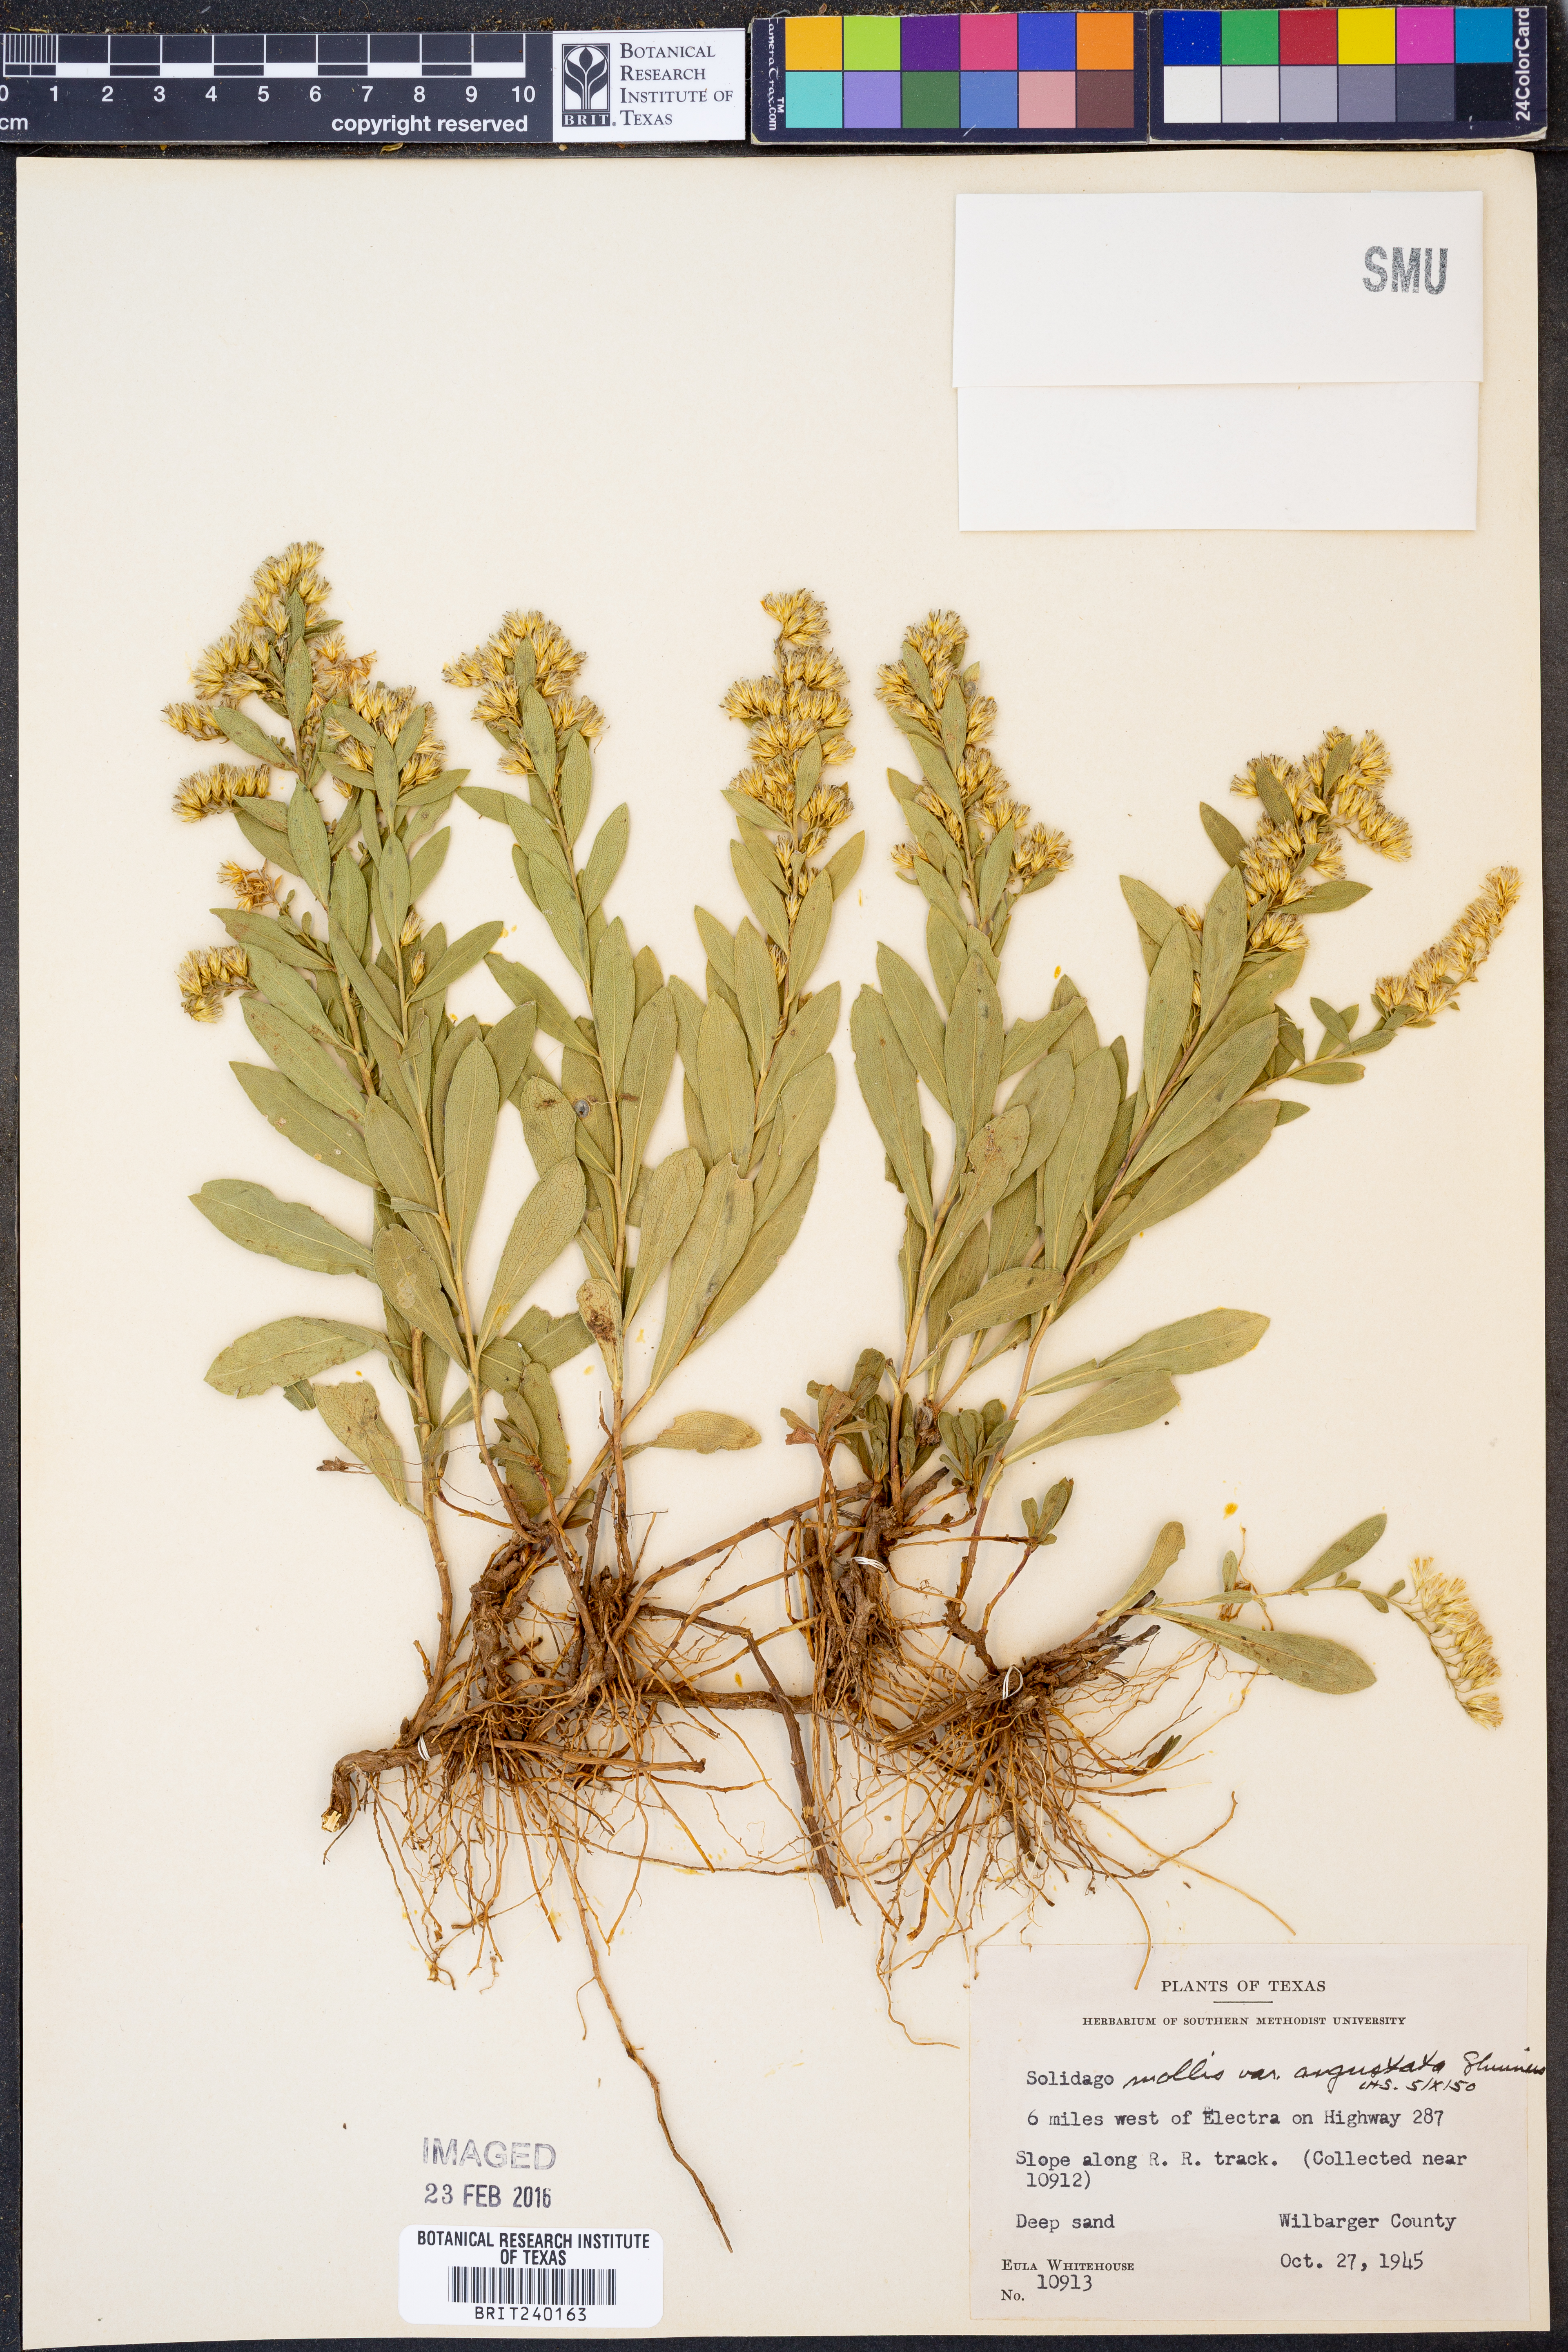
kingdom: Plantae
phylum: Tracheophyta
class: Magnoliopsida
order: Asterales
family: Asteraceae
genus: Solidago
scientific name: Solidago mollis
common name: Ashly goldenrod
